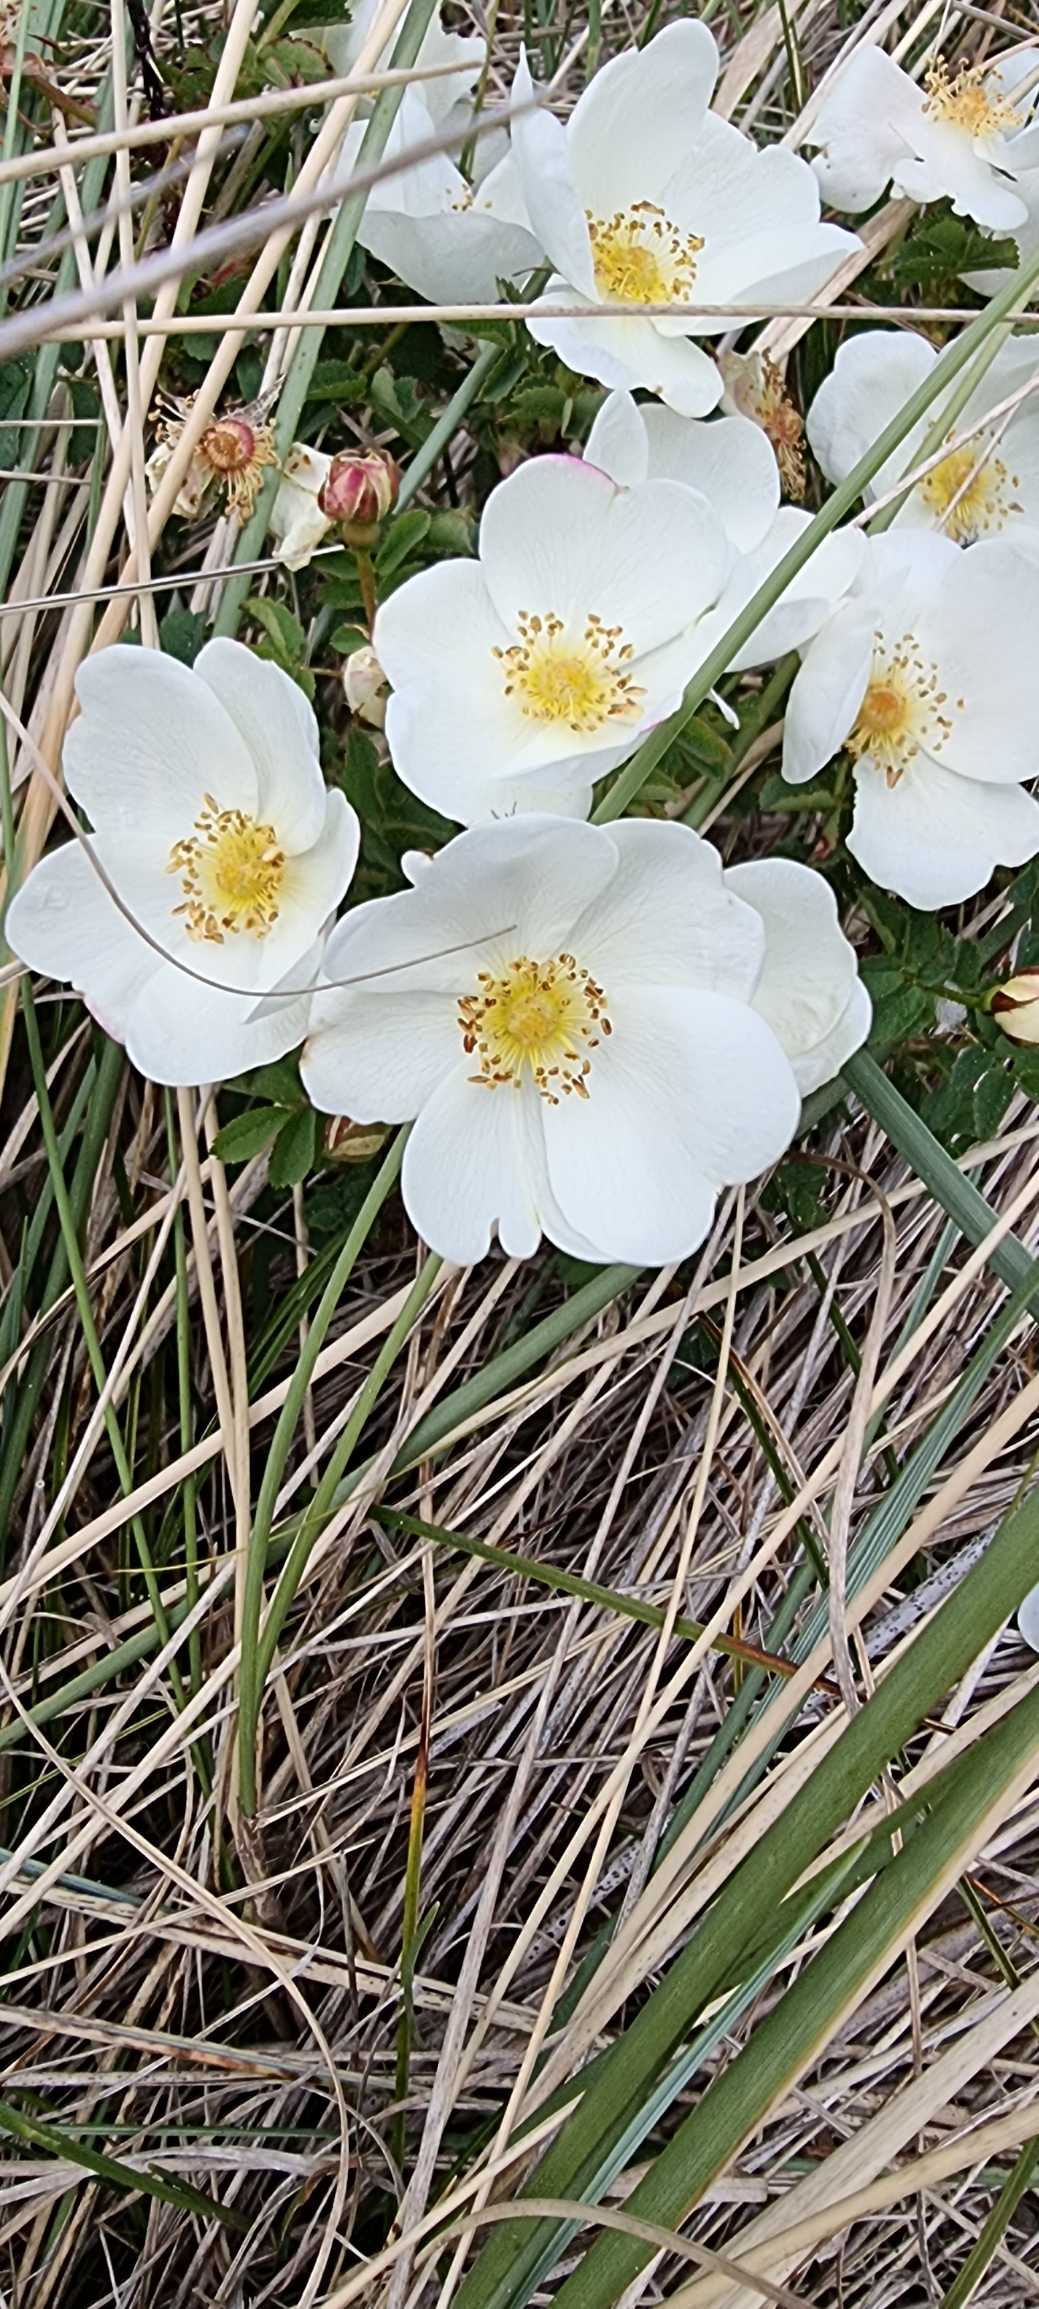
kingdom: Plantae
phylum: Tracheophyta
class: Magnoliopsida
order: Rosales
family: Rosaceae
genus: Rosa
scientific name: Rosa spinosissima
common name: Klit-rose
